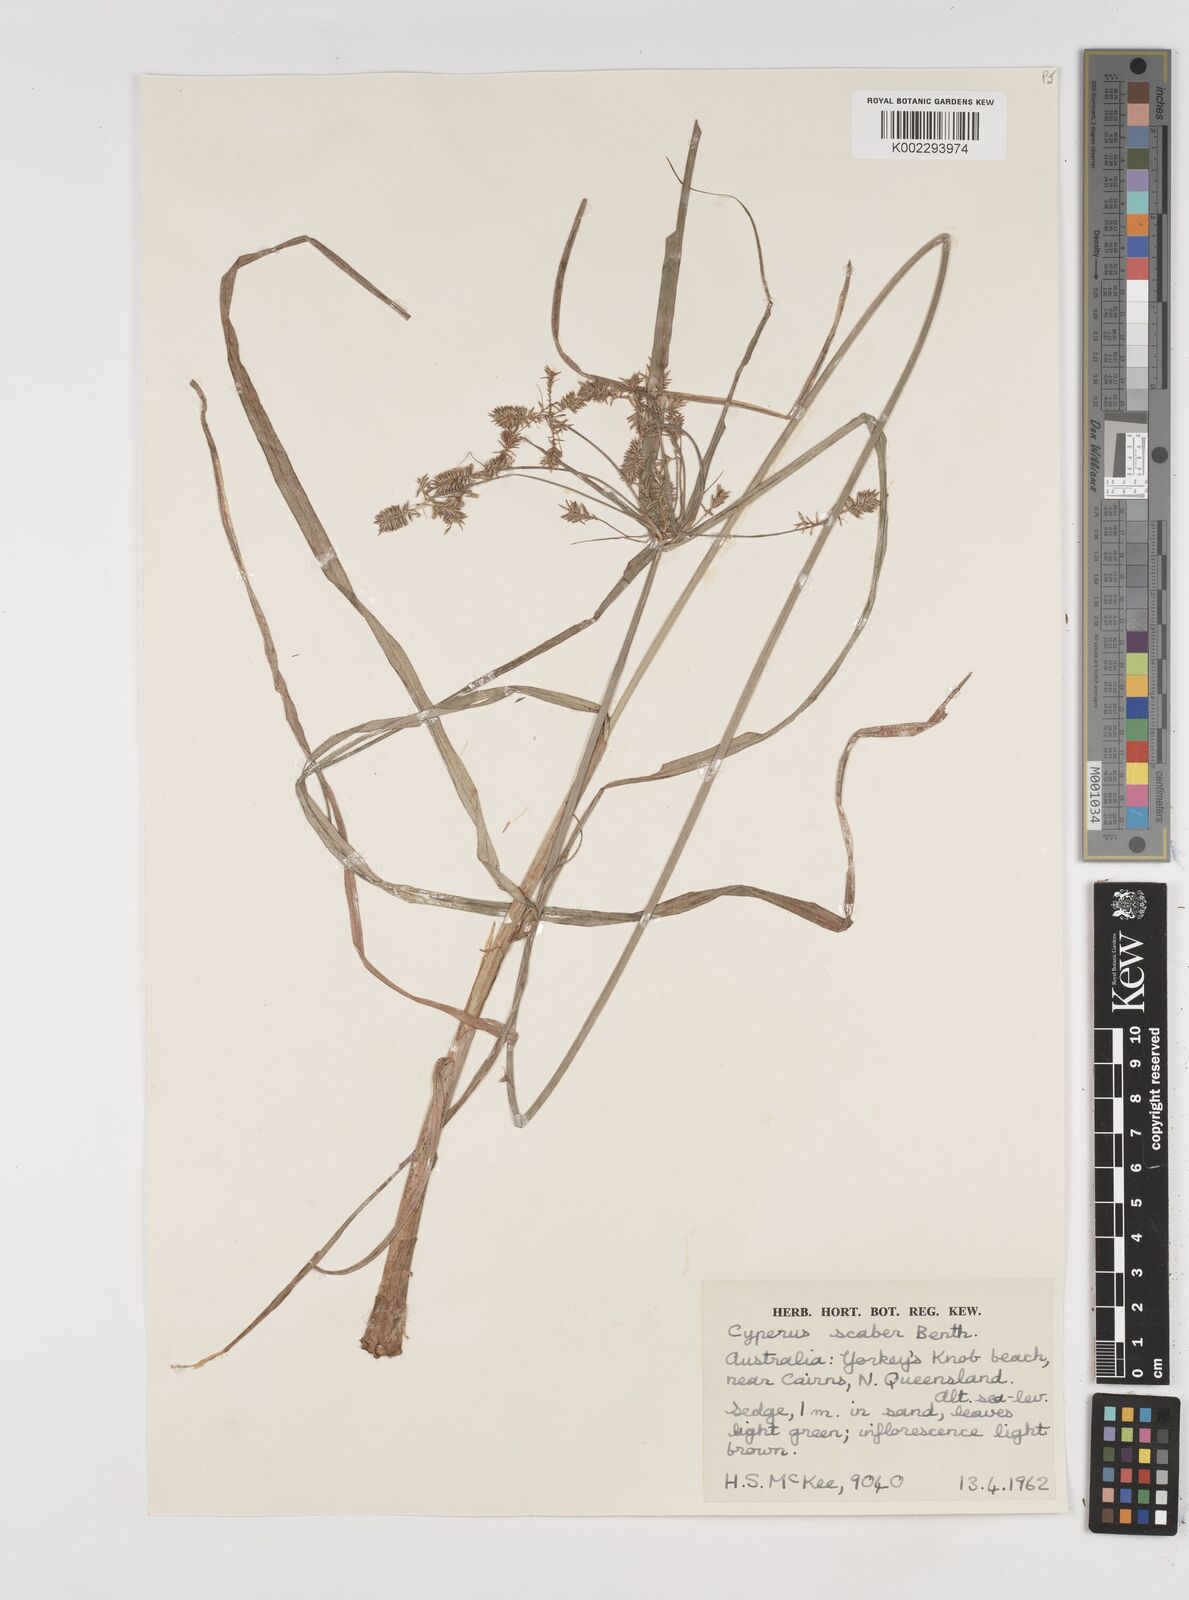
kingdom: Plantae
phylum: Tracheophyta
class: Liliopsida
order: Poales
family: Cyperaceae
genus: Cyperus
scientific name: Cyperus scaber
